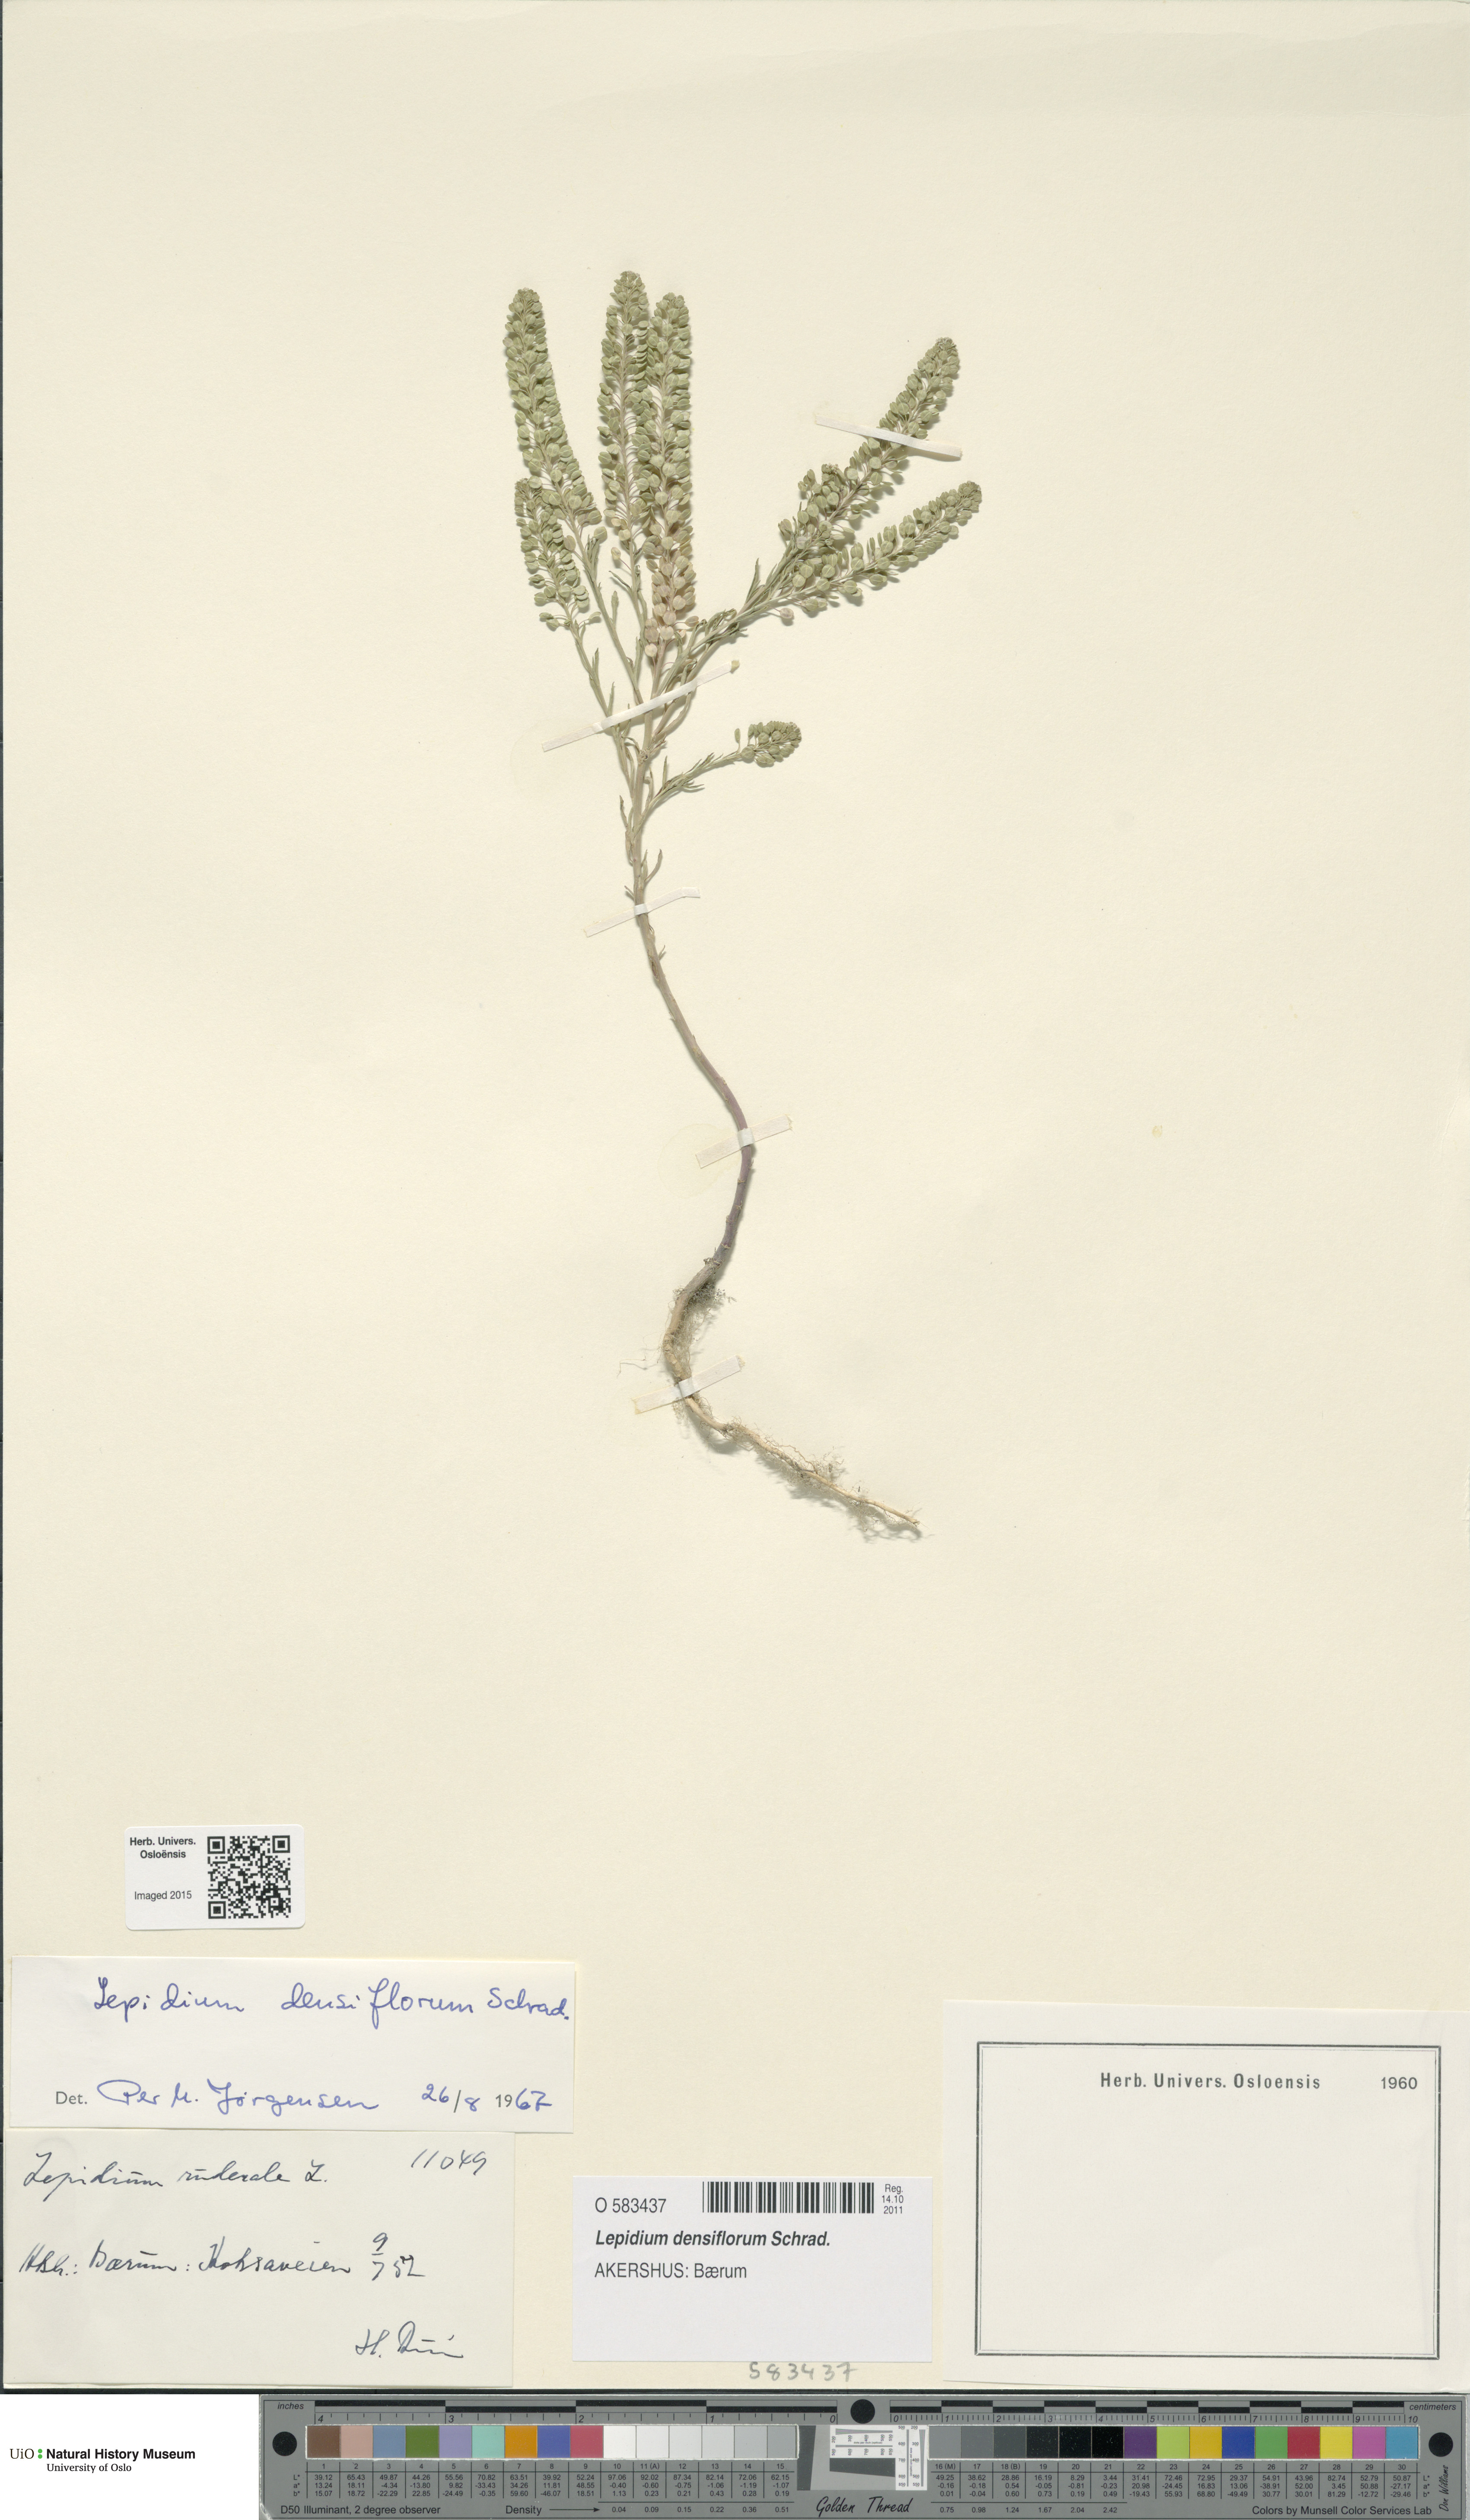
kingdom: Plantae
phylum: Tracheophyta
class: Magnoliopsida
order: Brassicales
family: Brassicaceae
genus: Lepidium
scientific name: Lepidium densiflorum
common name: Miner's pepperwort
